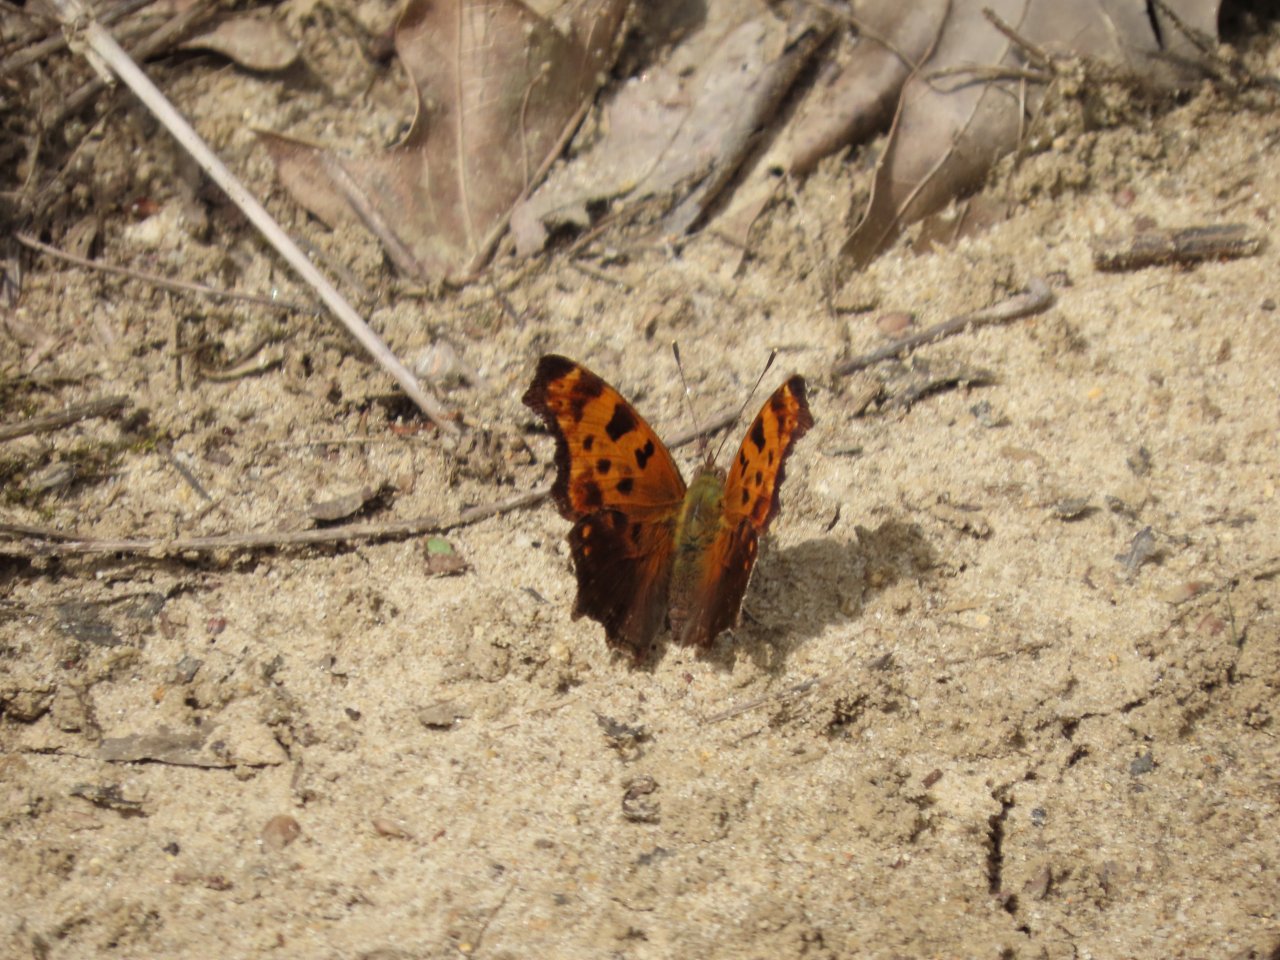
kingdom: Animalia
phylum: Arthropoda
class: Insecta
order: Lepidoptera
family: Nymphalidae
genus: Polygonia
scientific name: Polygonia comma
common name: Eastern Comma
